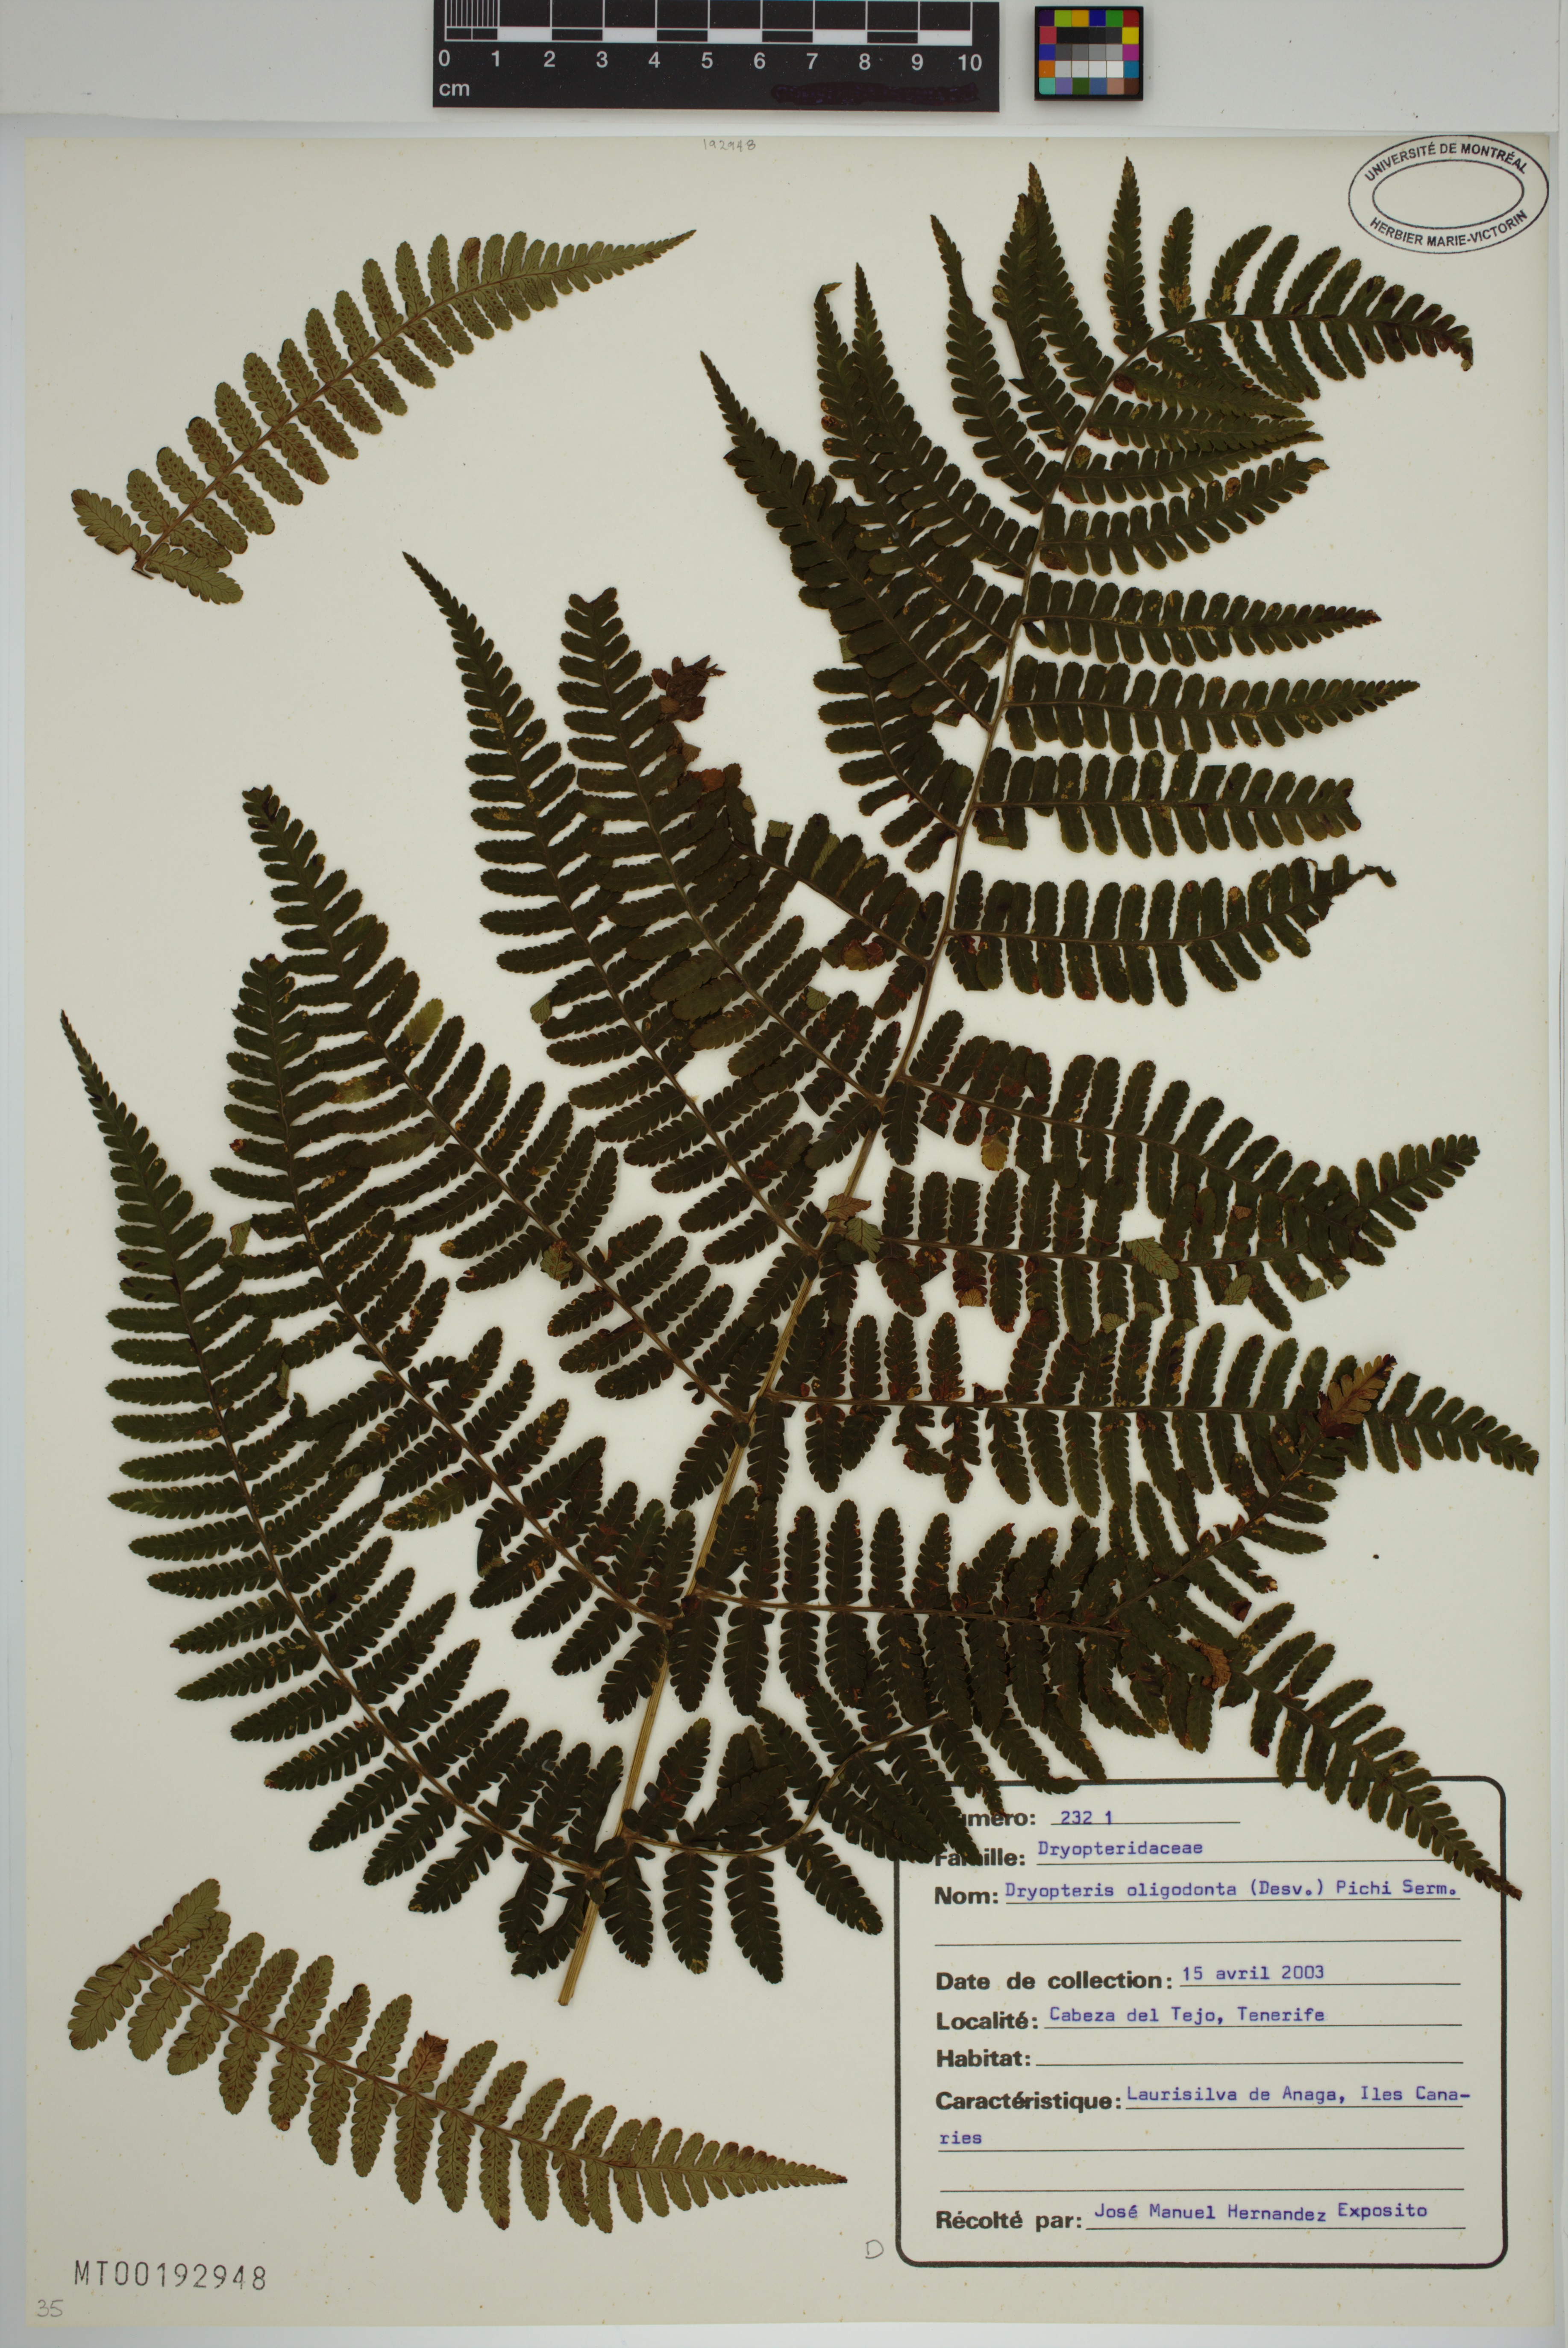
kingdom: Plantae
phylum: Tracheophyta
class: Polypodiopsida
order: Polypodiales
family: Dryopteridaceae
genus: Dryopteris
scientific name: Dryopteris oligodonta
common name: Canarian male-fern
